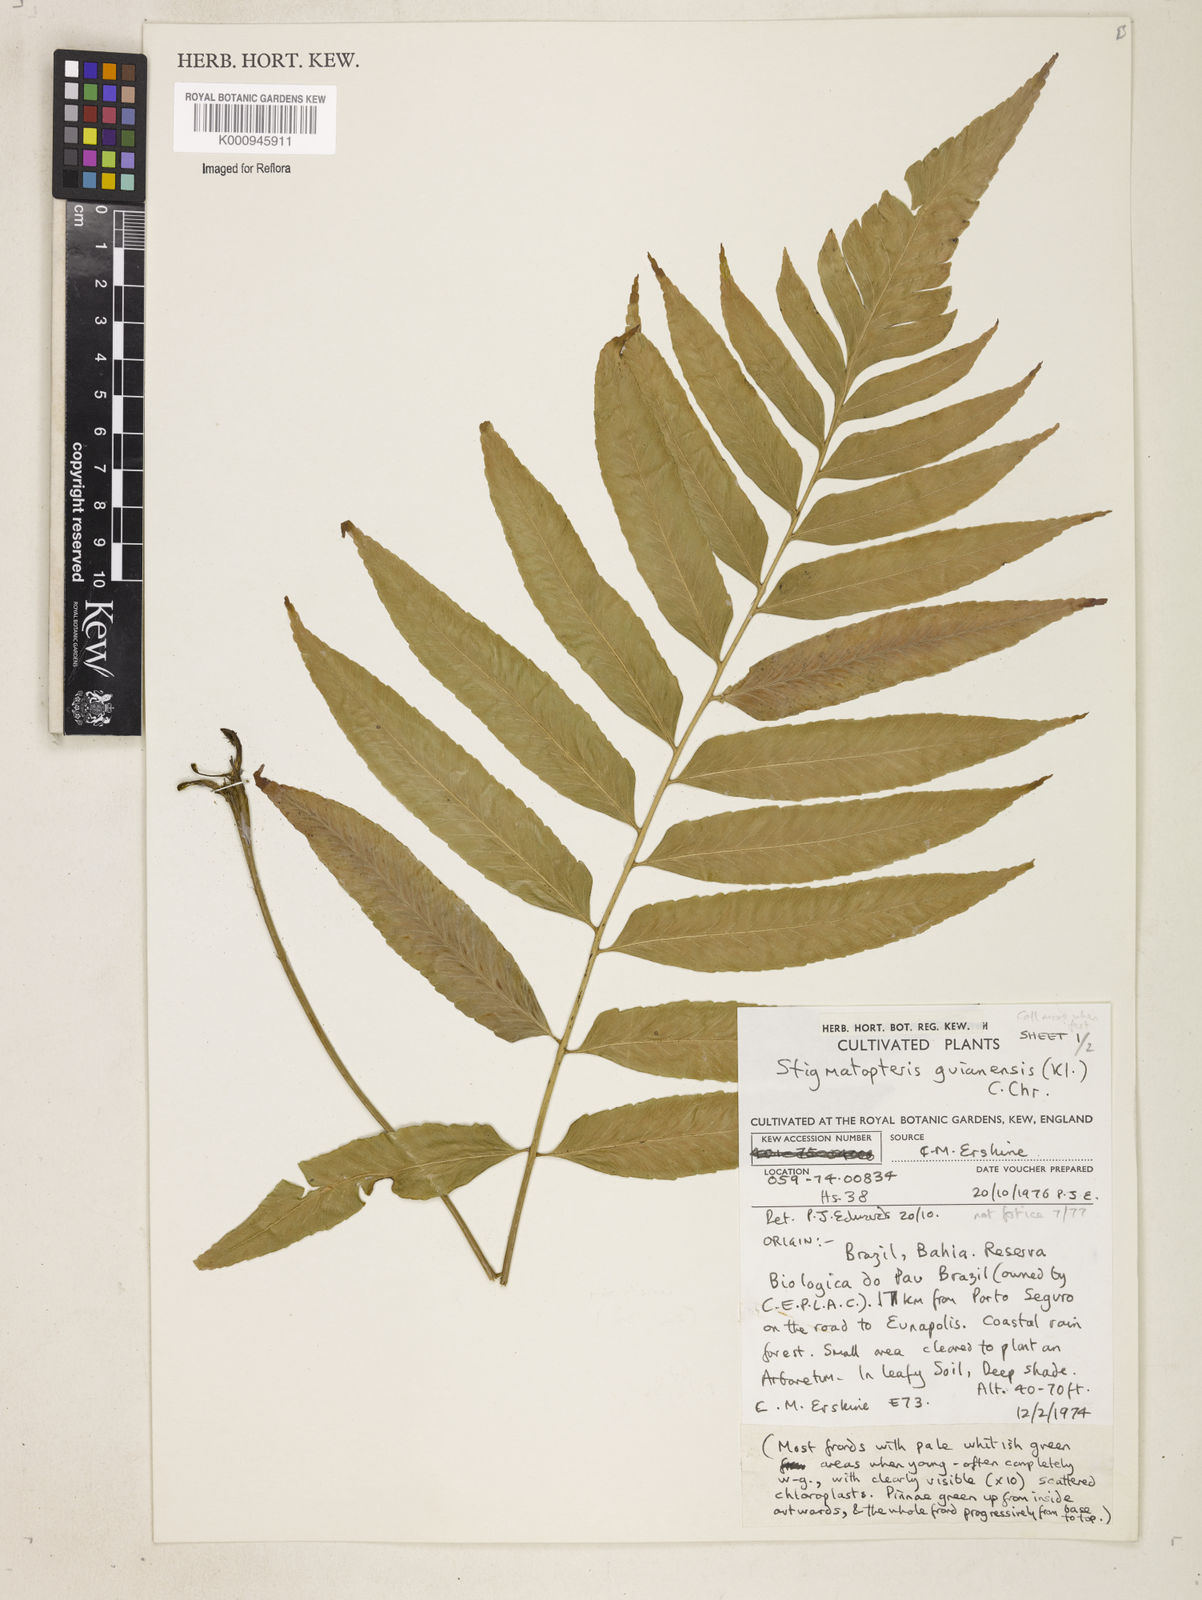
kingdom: Plantae
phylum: Tracheophyta
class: Polypodiopsida
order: Polypodiales
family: Dryopteridaceae
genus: Cyclodium
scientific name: Cyclodium
